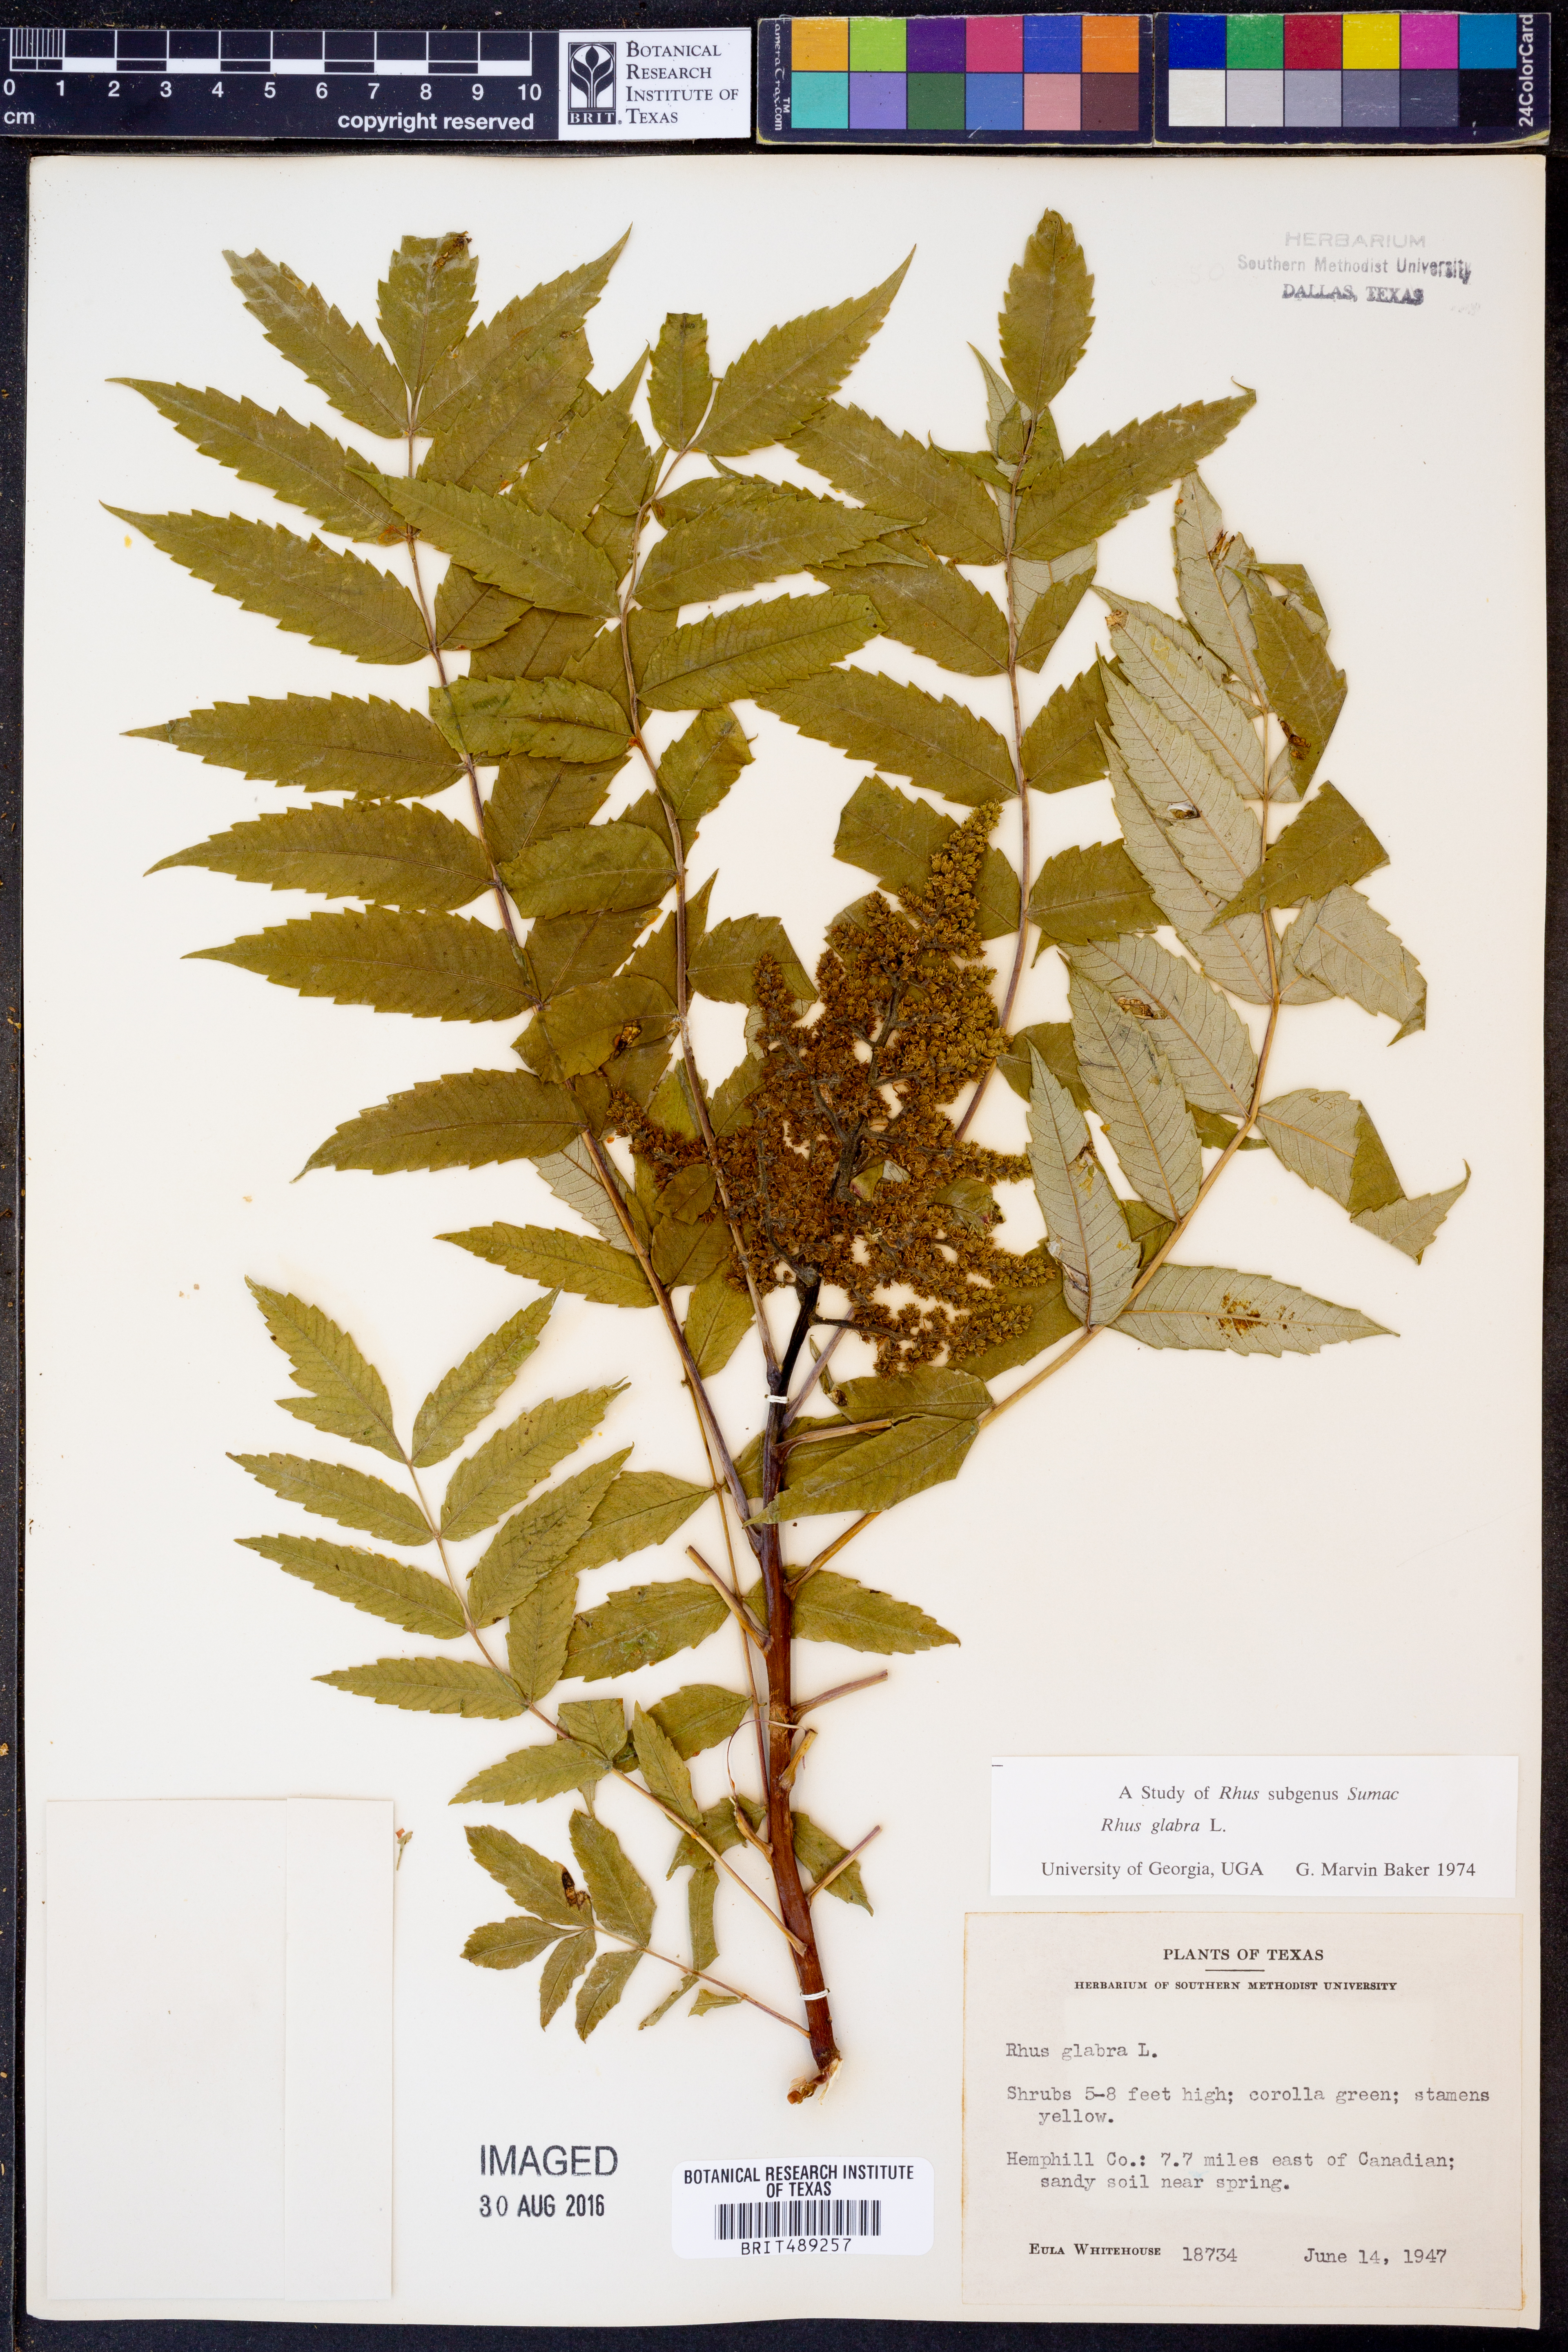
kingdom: Plantae
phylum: Tracheophyta
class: Magnoliopsida
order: Sapindales
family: Anacardiaceae
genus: Rhus
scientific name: Rhus glabra
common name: Scarlet sumac
